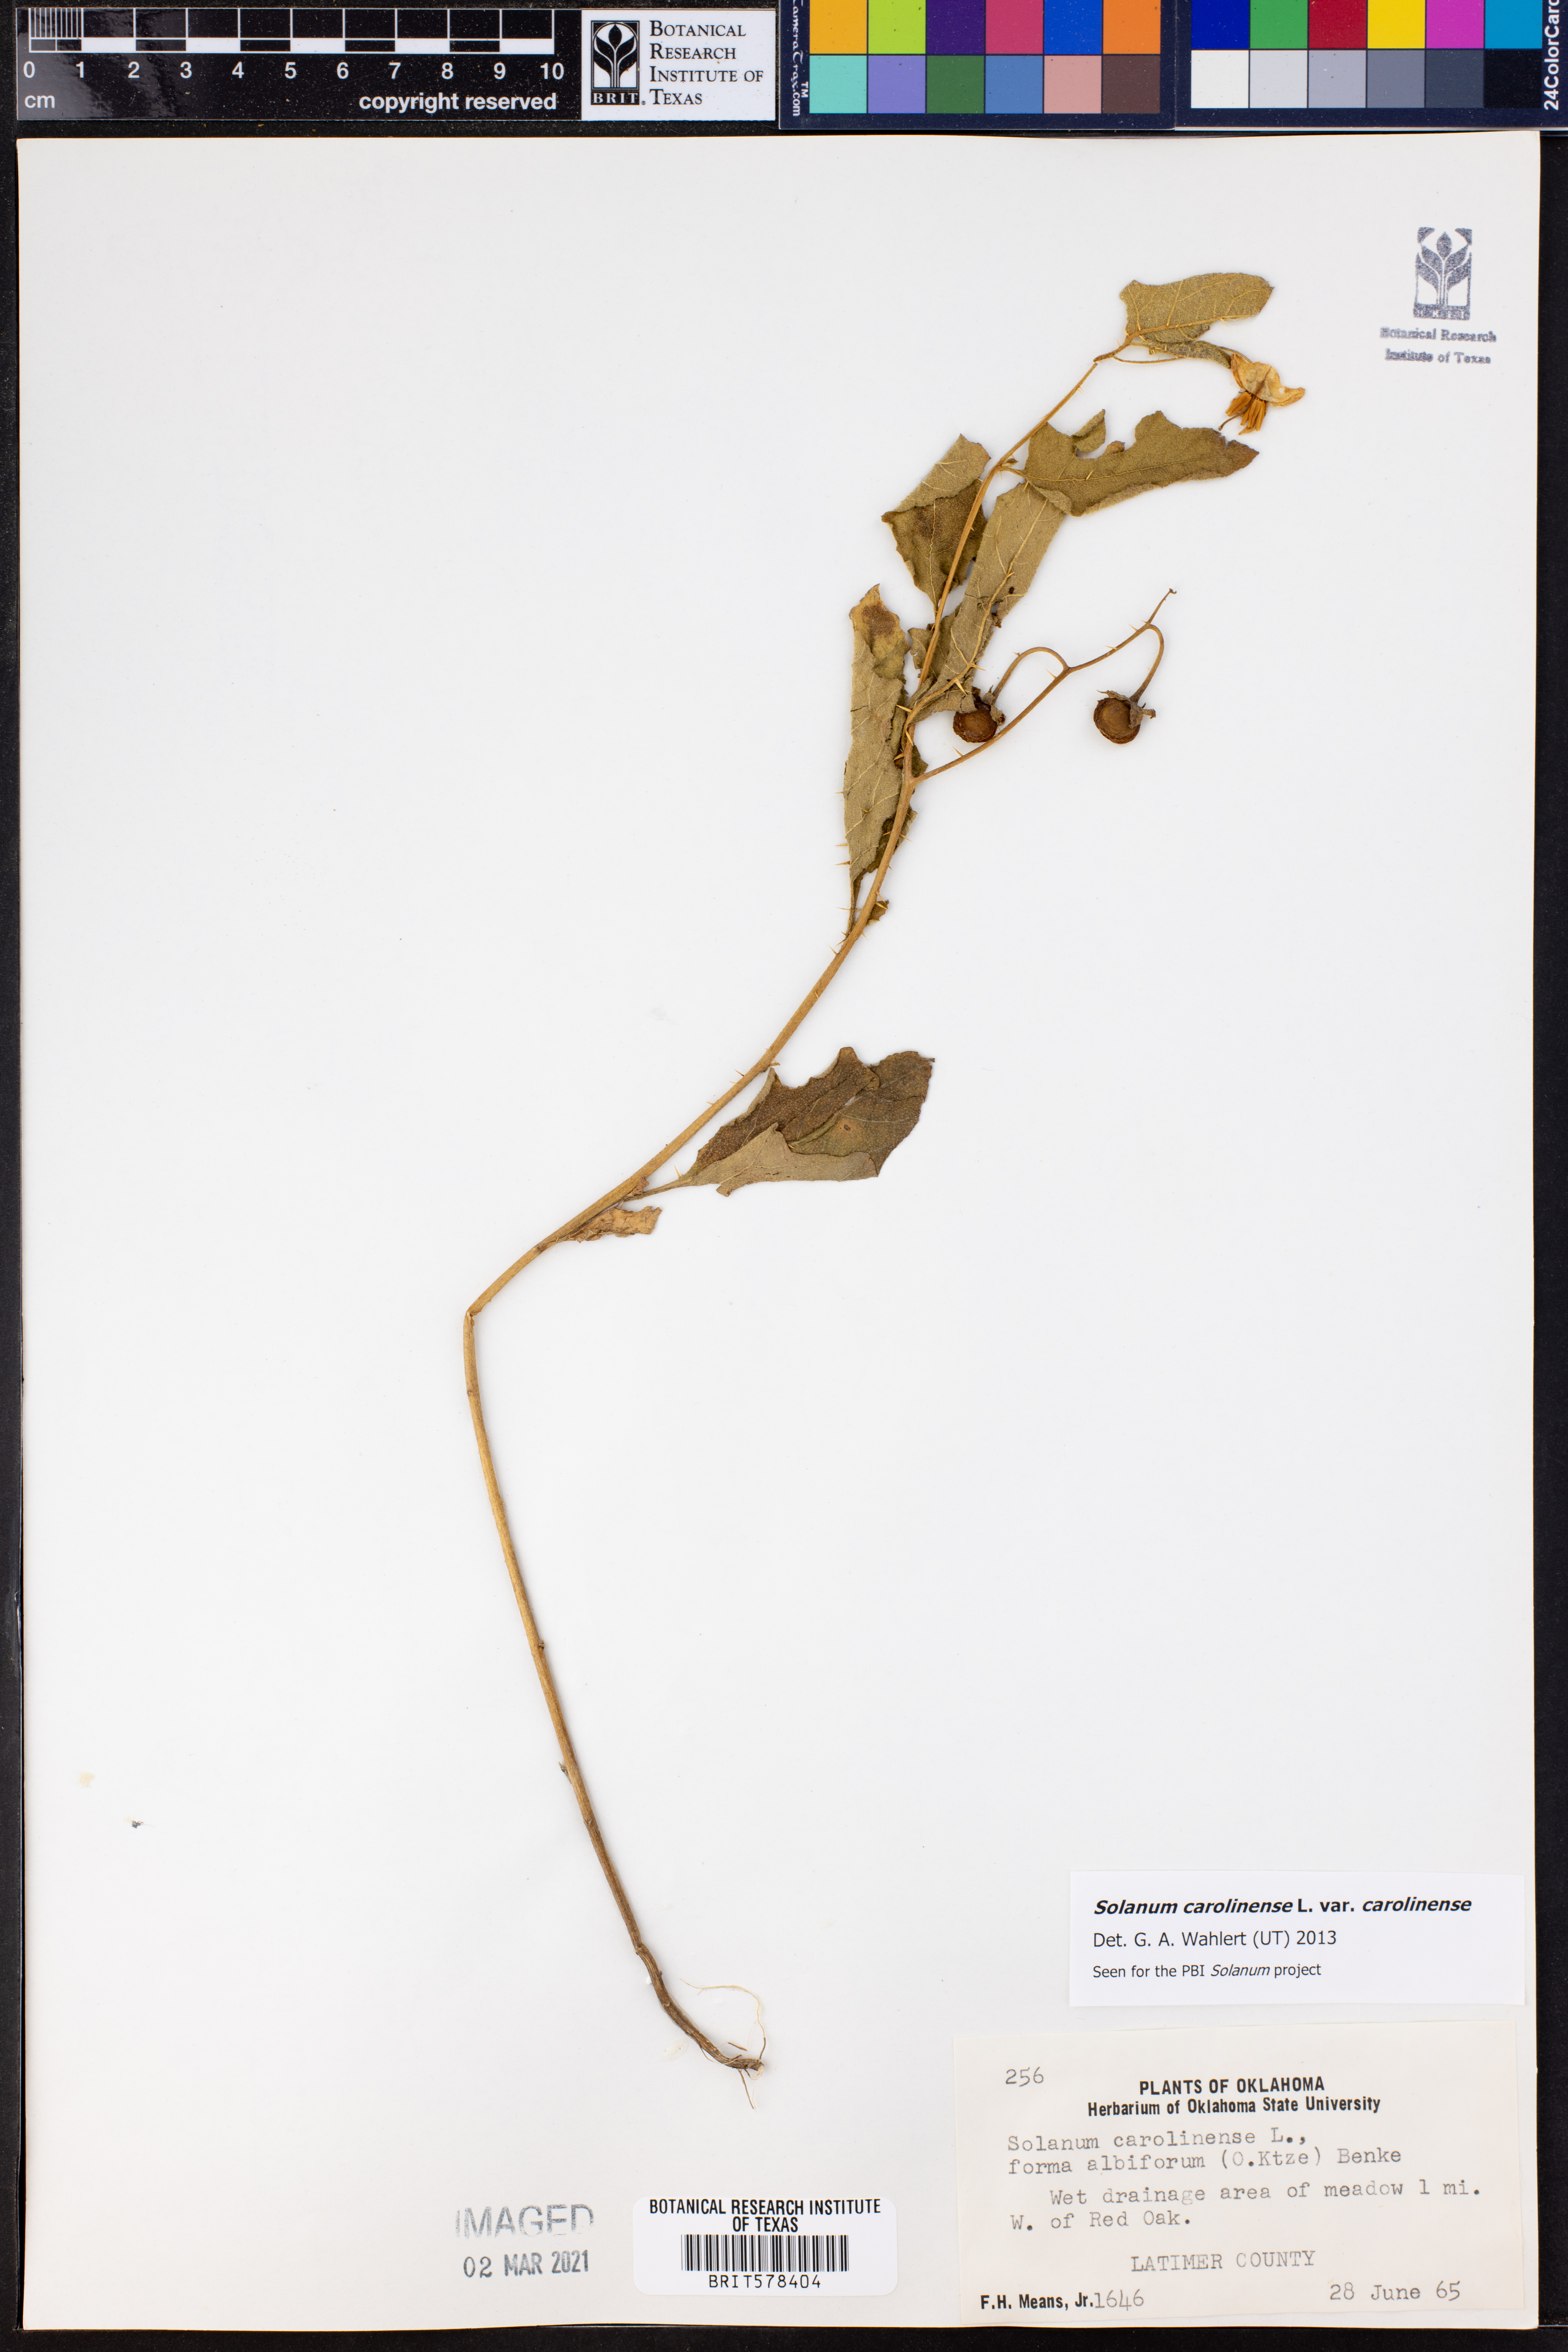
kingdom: Plantae
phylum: Tracheophyta
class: Magnoliopsida
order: Solanales
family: Solanaceae
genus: Solanum
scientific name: Solanum carolinense
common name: Horse-nettle
